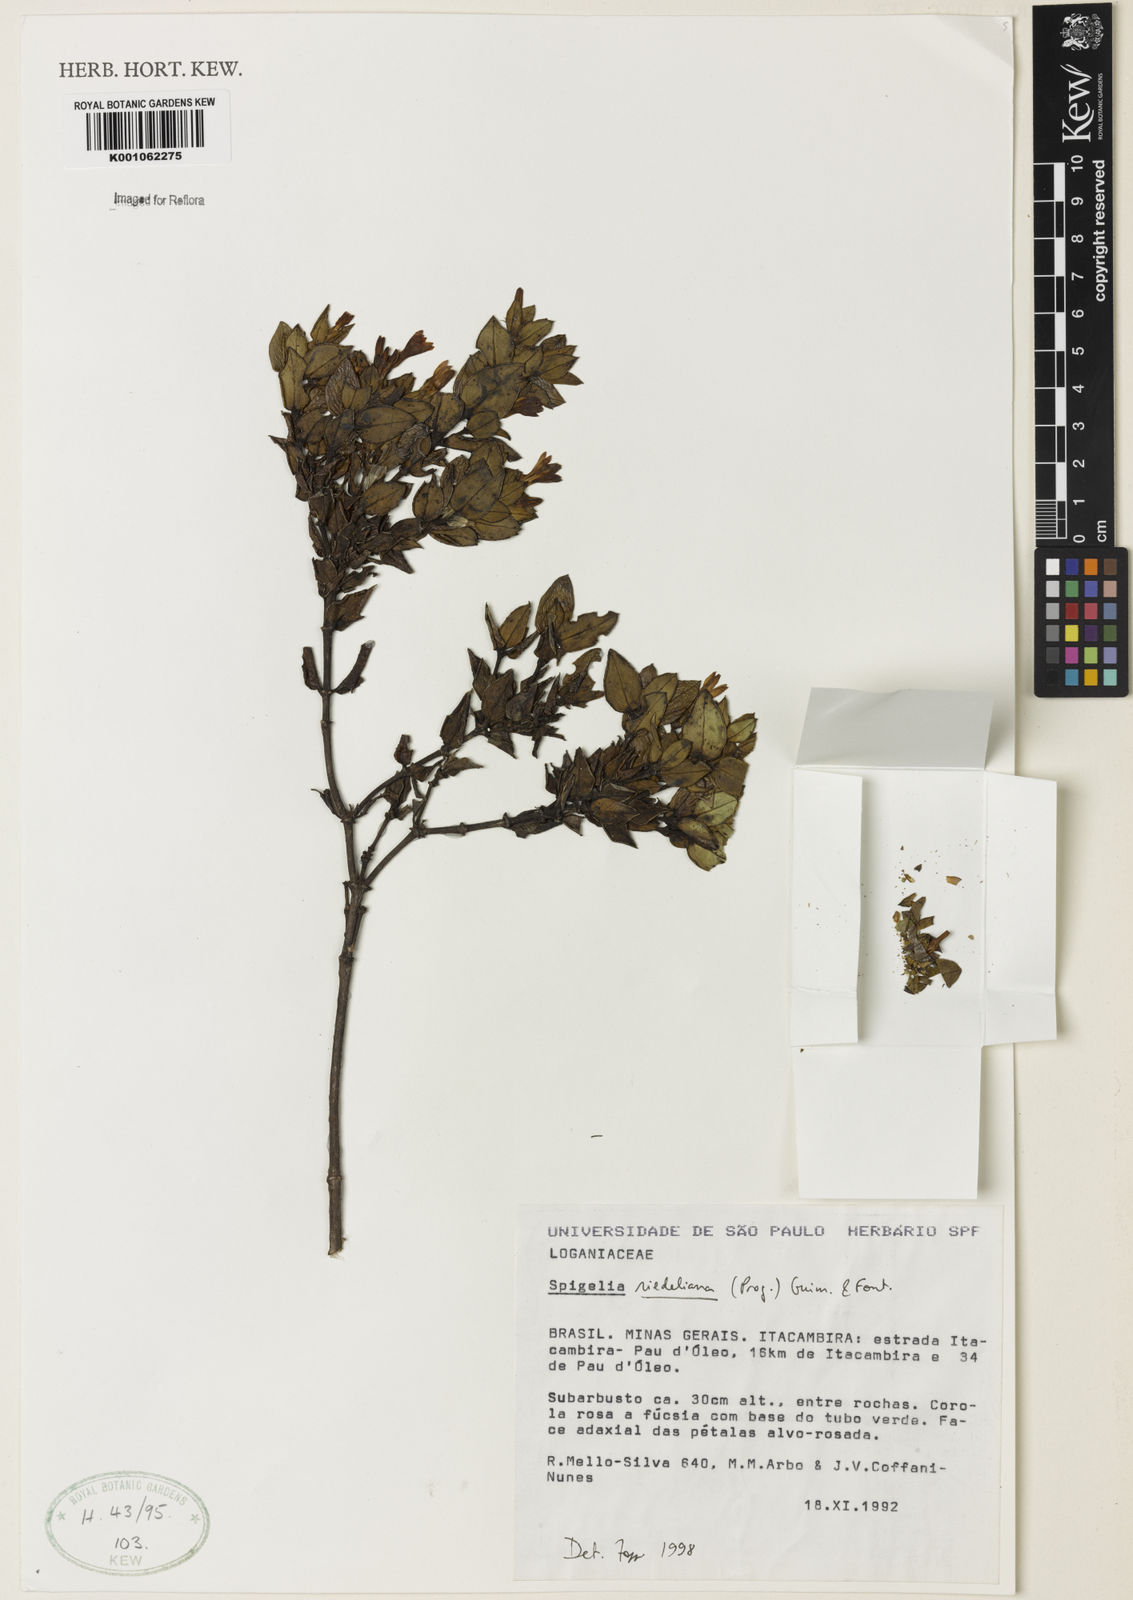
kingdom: Plantae
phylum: Tracheophyta
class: Magnoliopsida
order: Gentianales
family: Loganiaceae
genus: Spigelia
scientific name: Spigelia riedeliana
